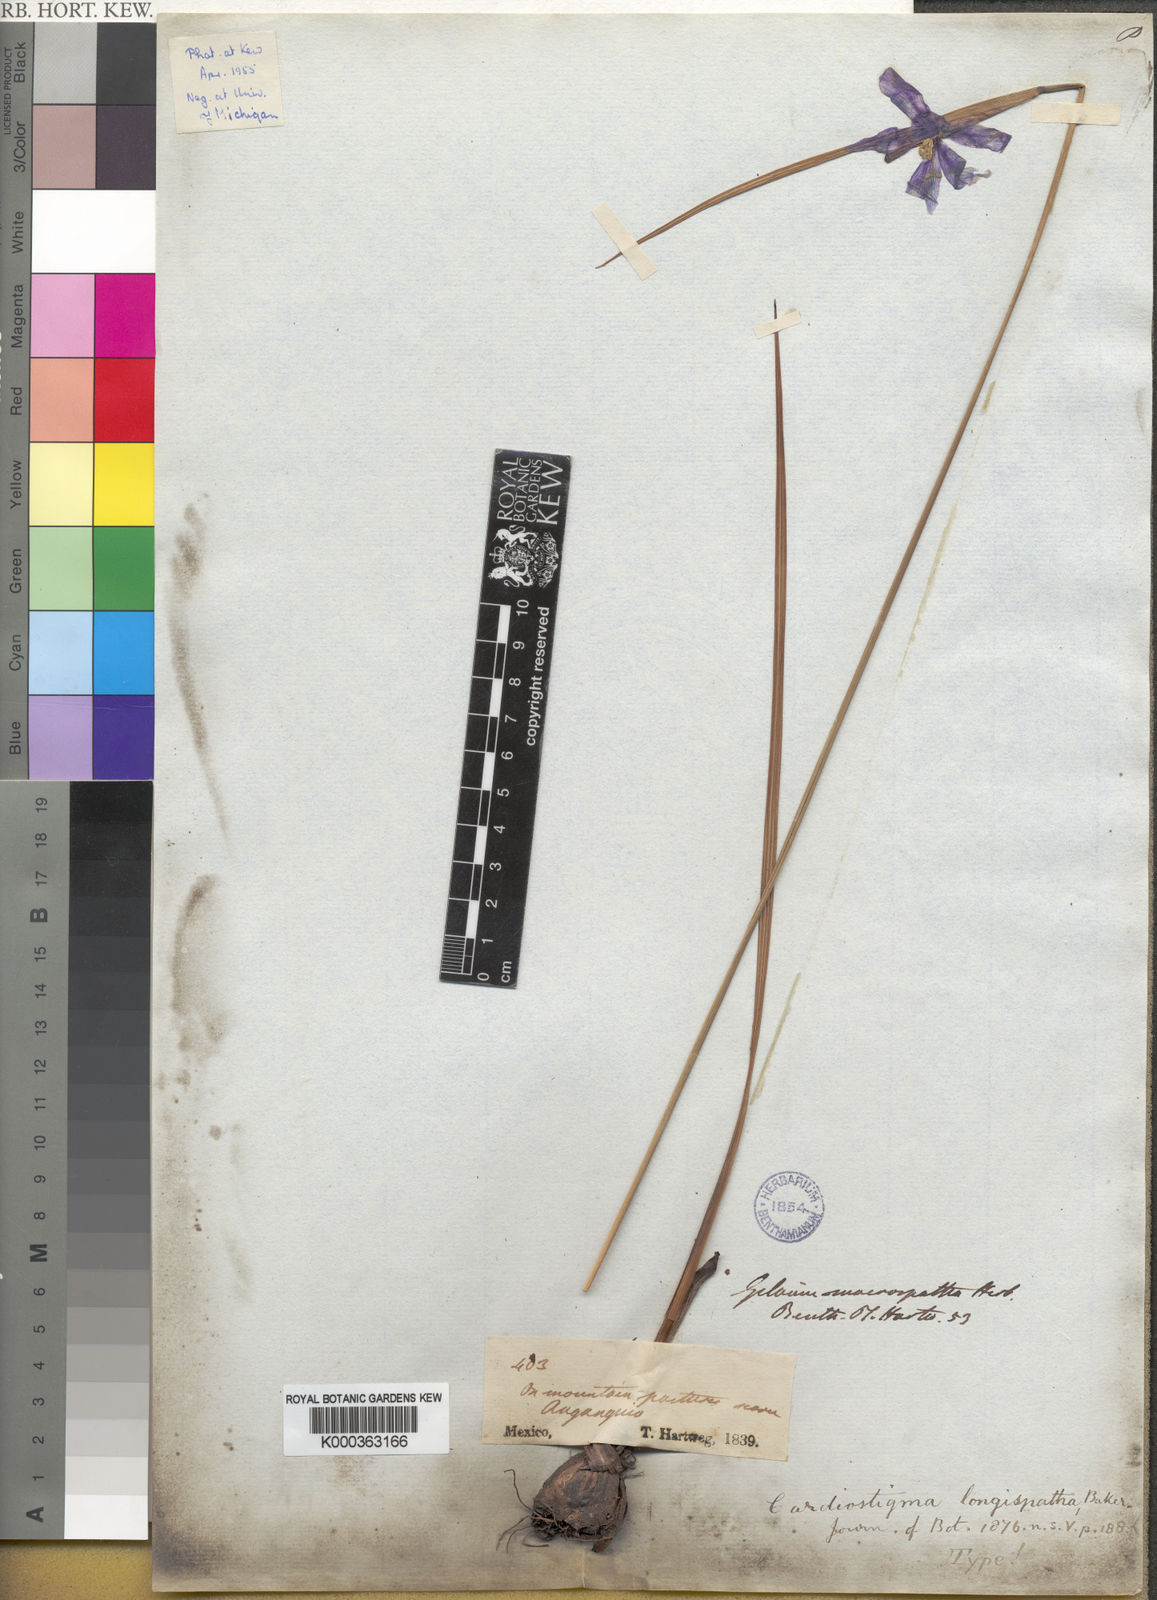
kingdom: Plantae
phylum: Tracheophyta
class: Liliopsida
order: Asparagales
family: Iridaceae
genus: Tigridia
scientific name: Tigridia longispatha
